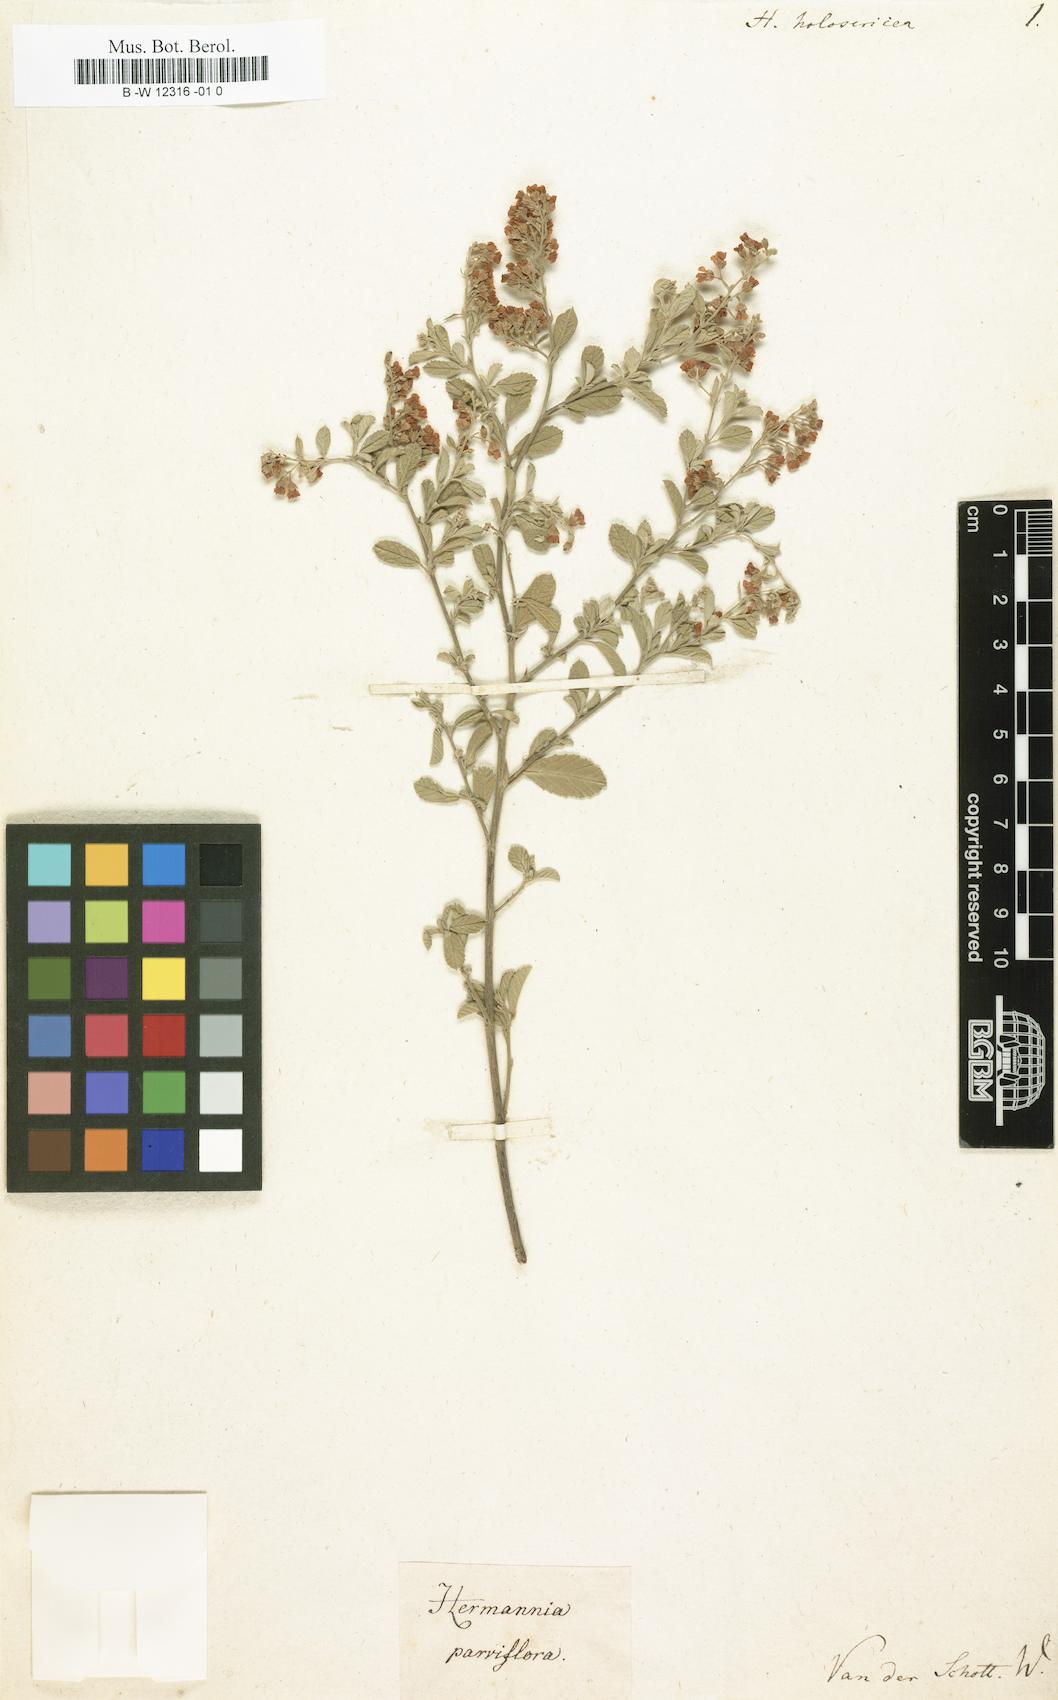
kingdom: Plantae
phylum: Tracheophyta
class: Magnoliopsida
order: Malvales
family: Malvaceae
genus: Hermannia
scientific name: Hermannia holosericea
